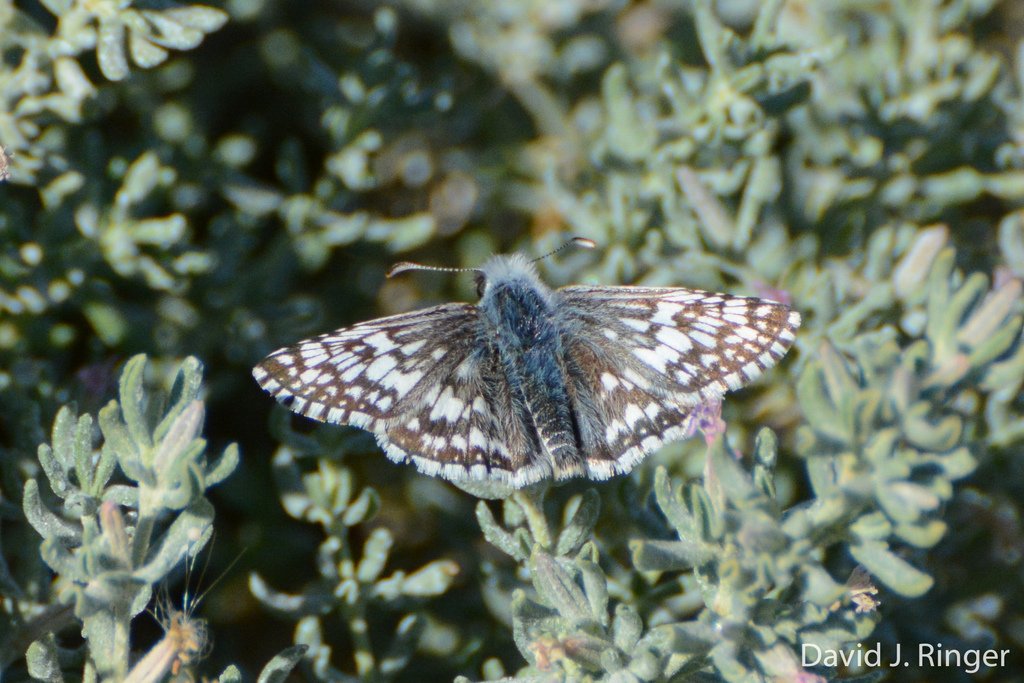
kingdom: Animalia
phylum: Arthropoda
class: Insecta
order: Lepidoptera
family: Hesperiidae
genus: Pyrgus
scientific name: Pyrgus communis
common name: Common Checkered-Skipper
